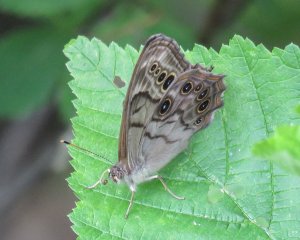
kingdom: Animalia
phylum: Arthropoda
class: Insecta
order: Lepidoptera
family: Nymphalidae
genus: Lethe
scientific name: Lethe anthedon
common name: Northern Pearly-Eye
